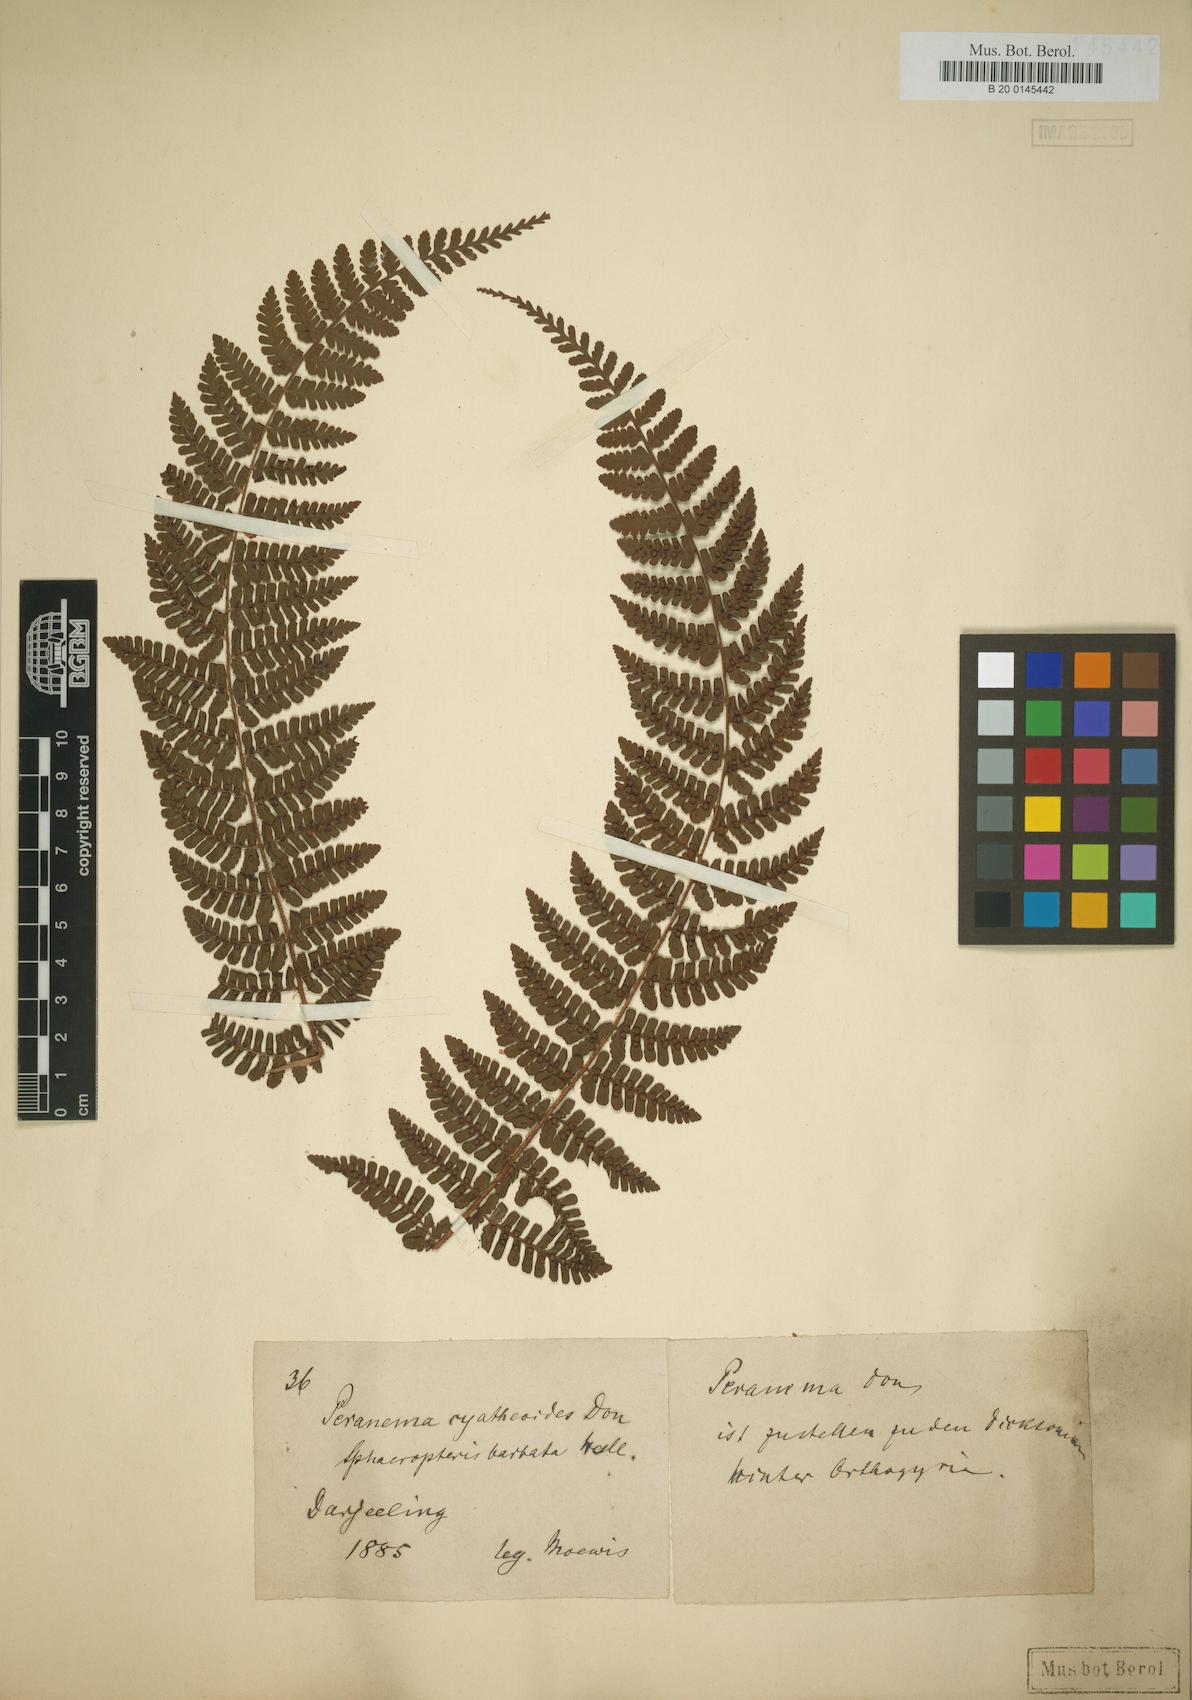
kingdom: Plantae
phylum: Tracheophyta
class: Polypodiopsida
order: Polypodiales
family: Dryopteridaceae
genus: Dryopteris
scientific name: Dryopteris peranema
